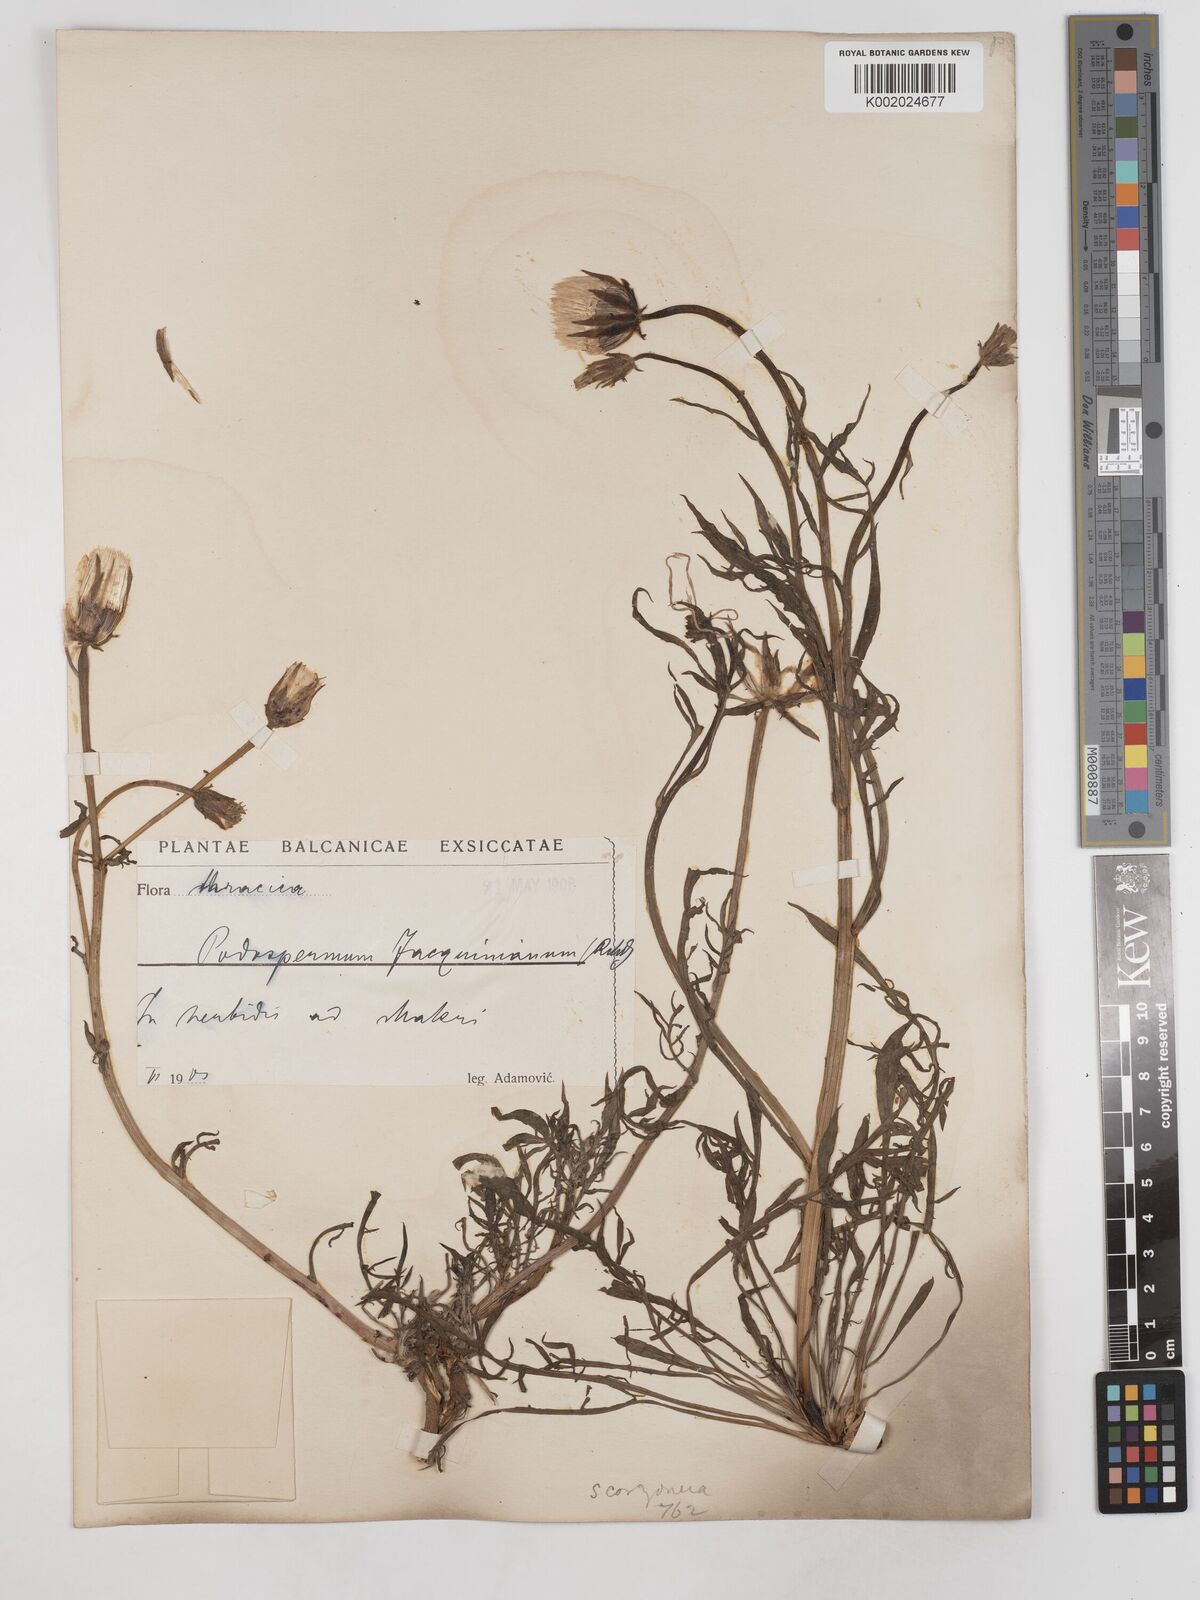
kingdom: Plantae
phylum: Tracheophyta
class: Magnoliopsida
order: Asterales
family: Asteraceae
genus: Scorzonera
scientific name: Scorzonera cana
